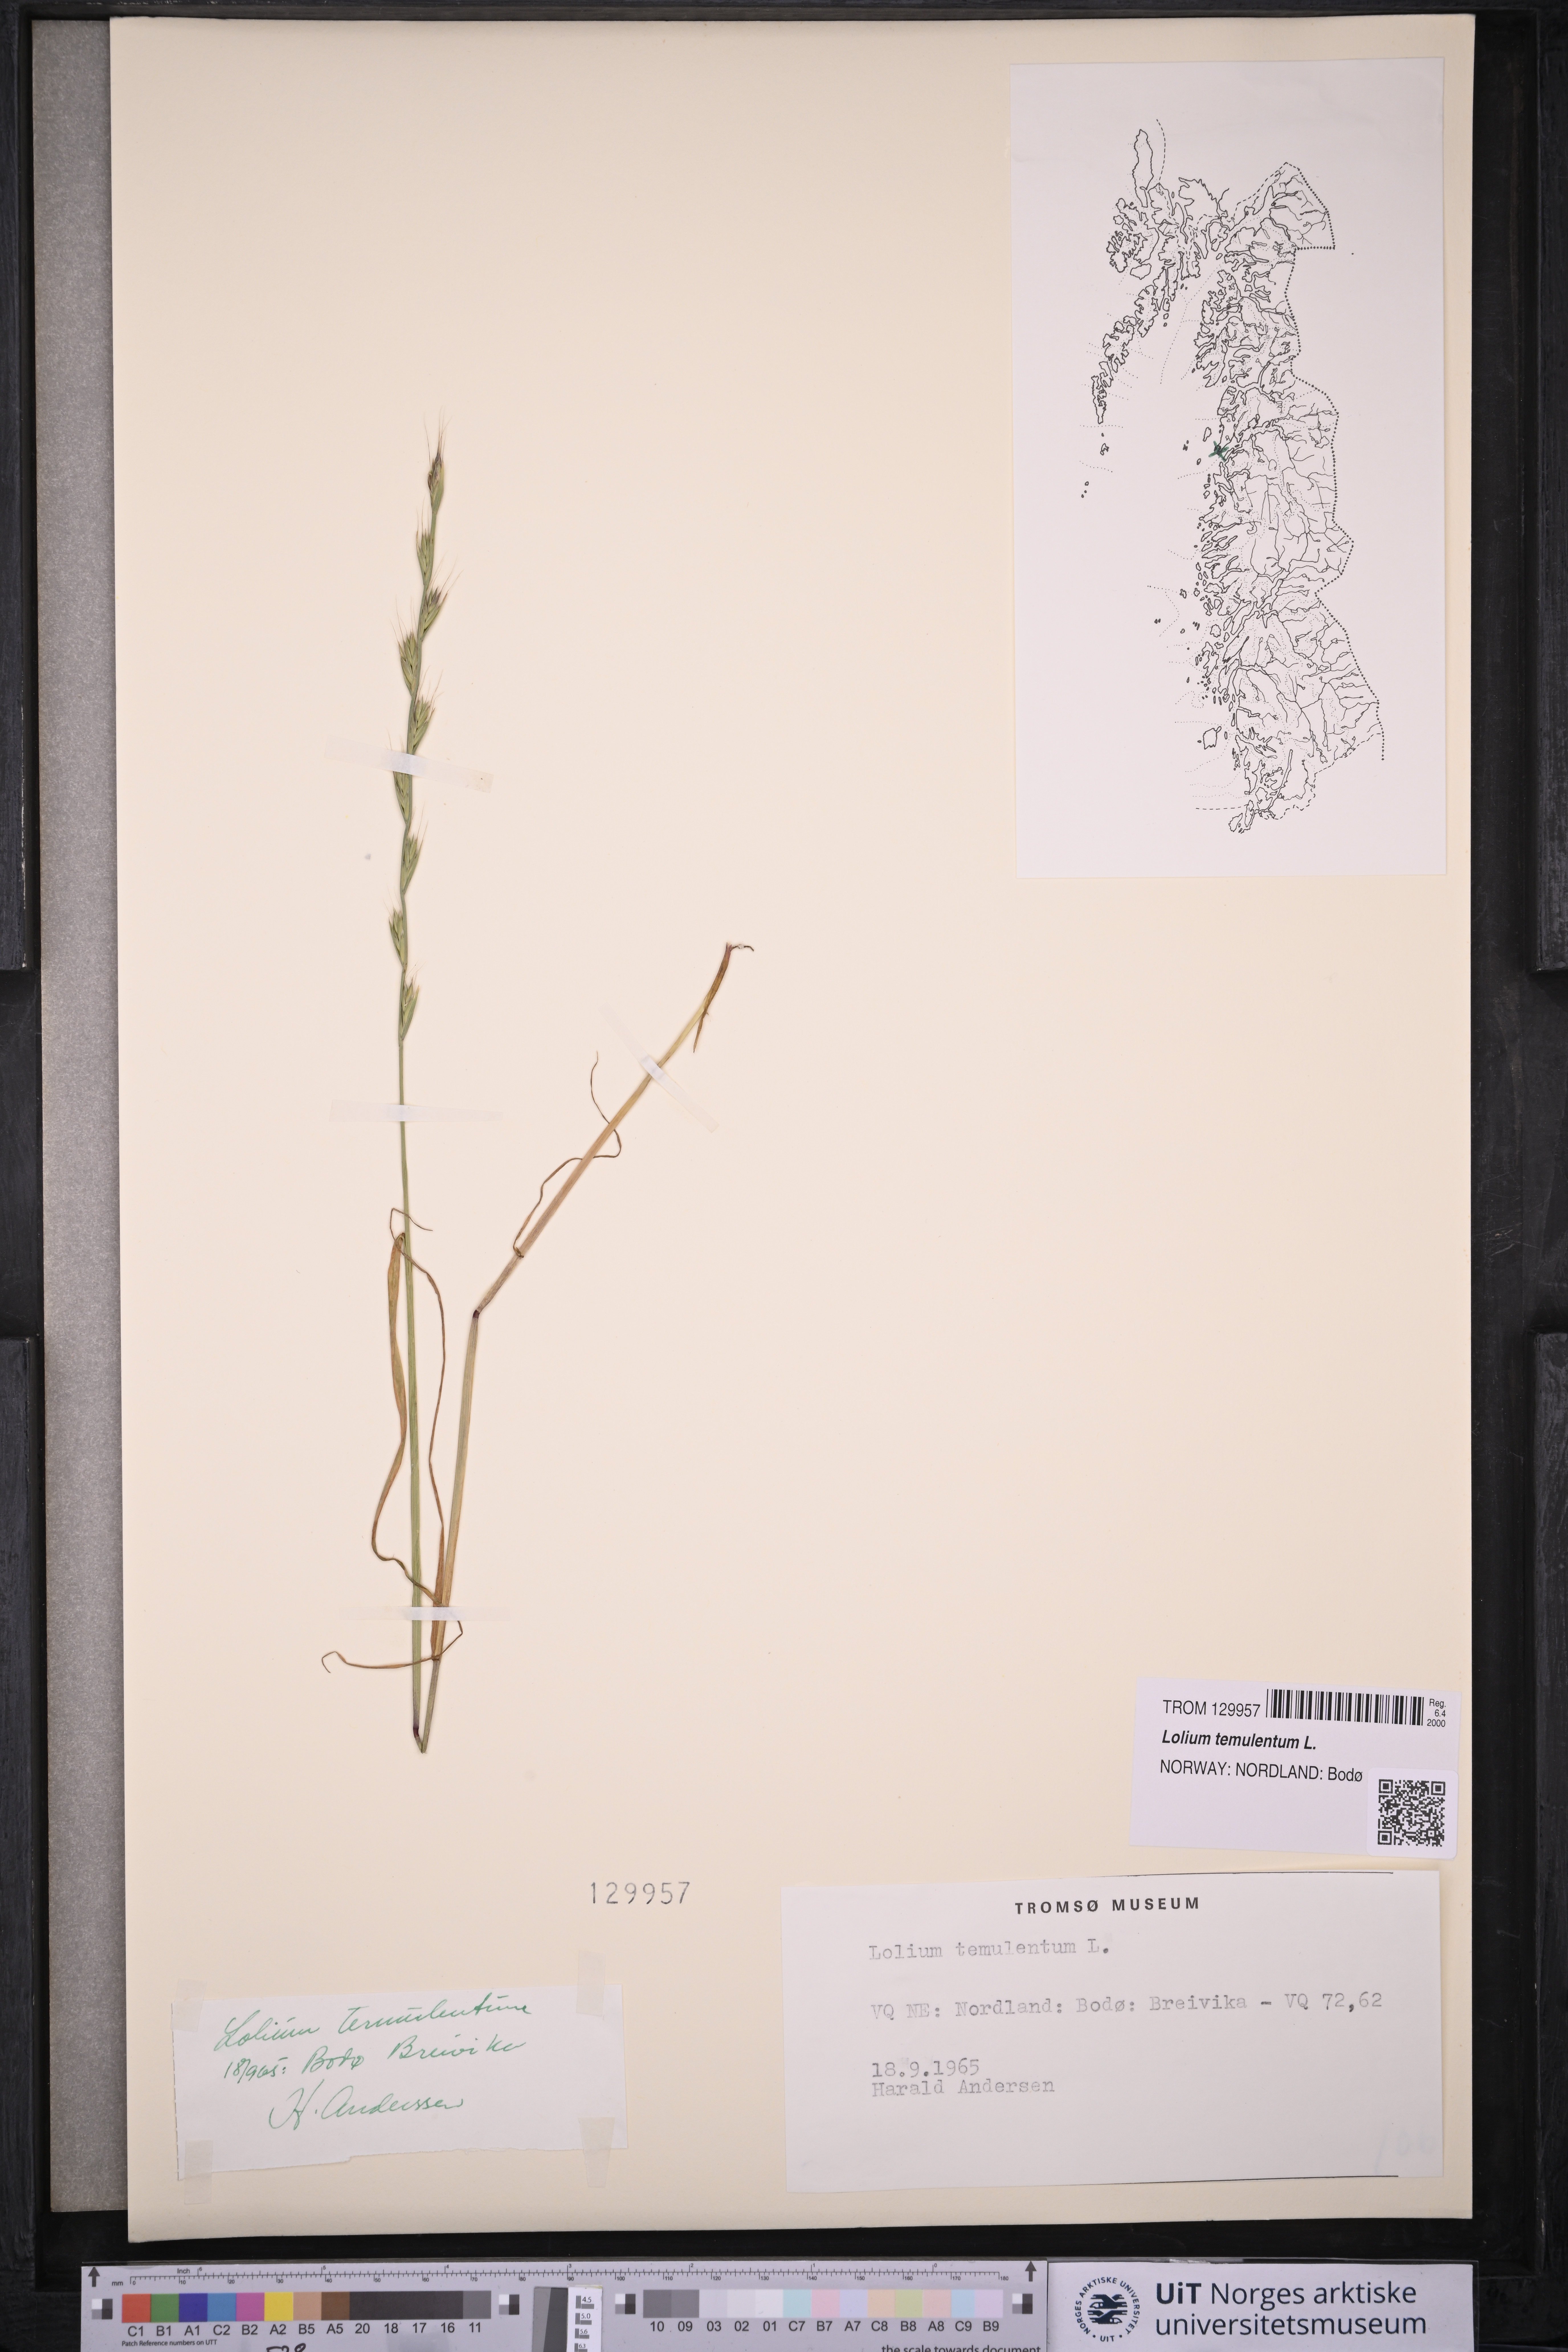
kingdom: Plantae
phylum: Tracheophyta
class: Liliopsida
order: Poales
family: Poaceae
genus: Lolium
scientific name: Lolium temulentum
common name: Darnel
